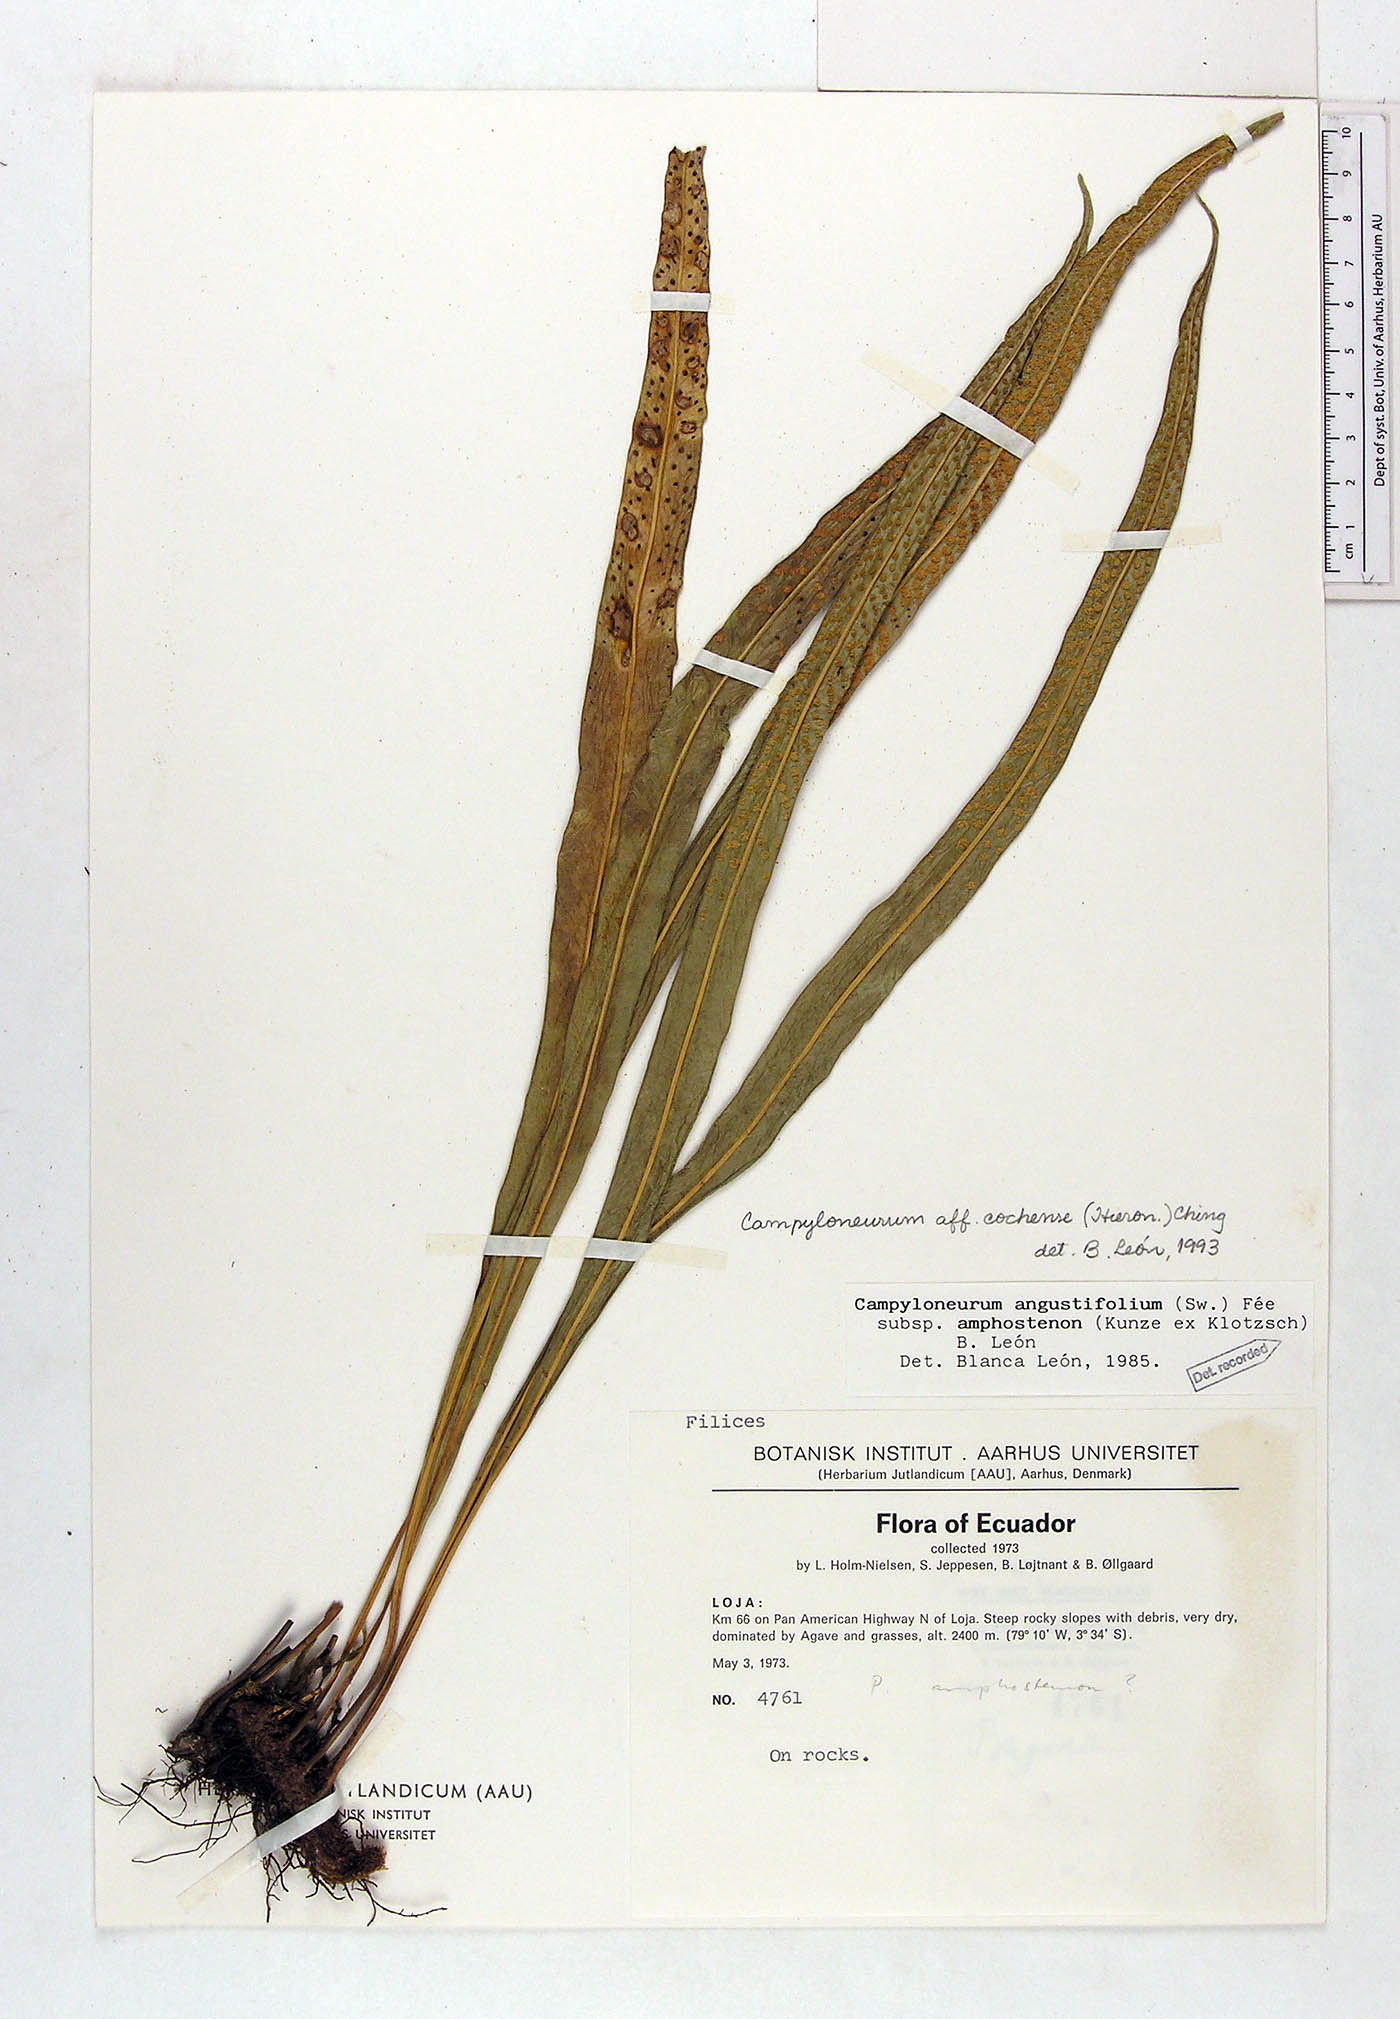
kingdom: Plantae
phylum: Tracheophyta
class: Polypodiopsida
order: Polypodiales
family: Polypodiaceae
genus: Campyloneurum
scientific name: Campyloneurum cochense
